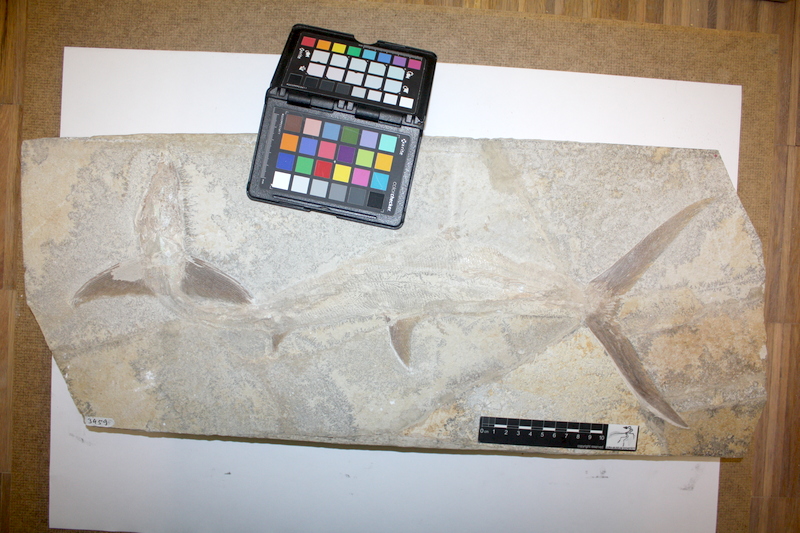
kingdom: Animalia
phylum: Chordata
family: Pachycormidae
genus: Sauropsis
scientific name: Sauropsis
